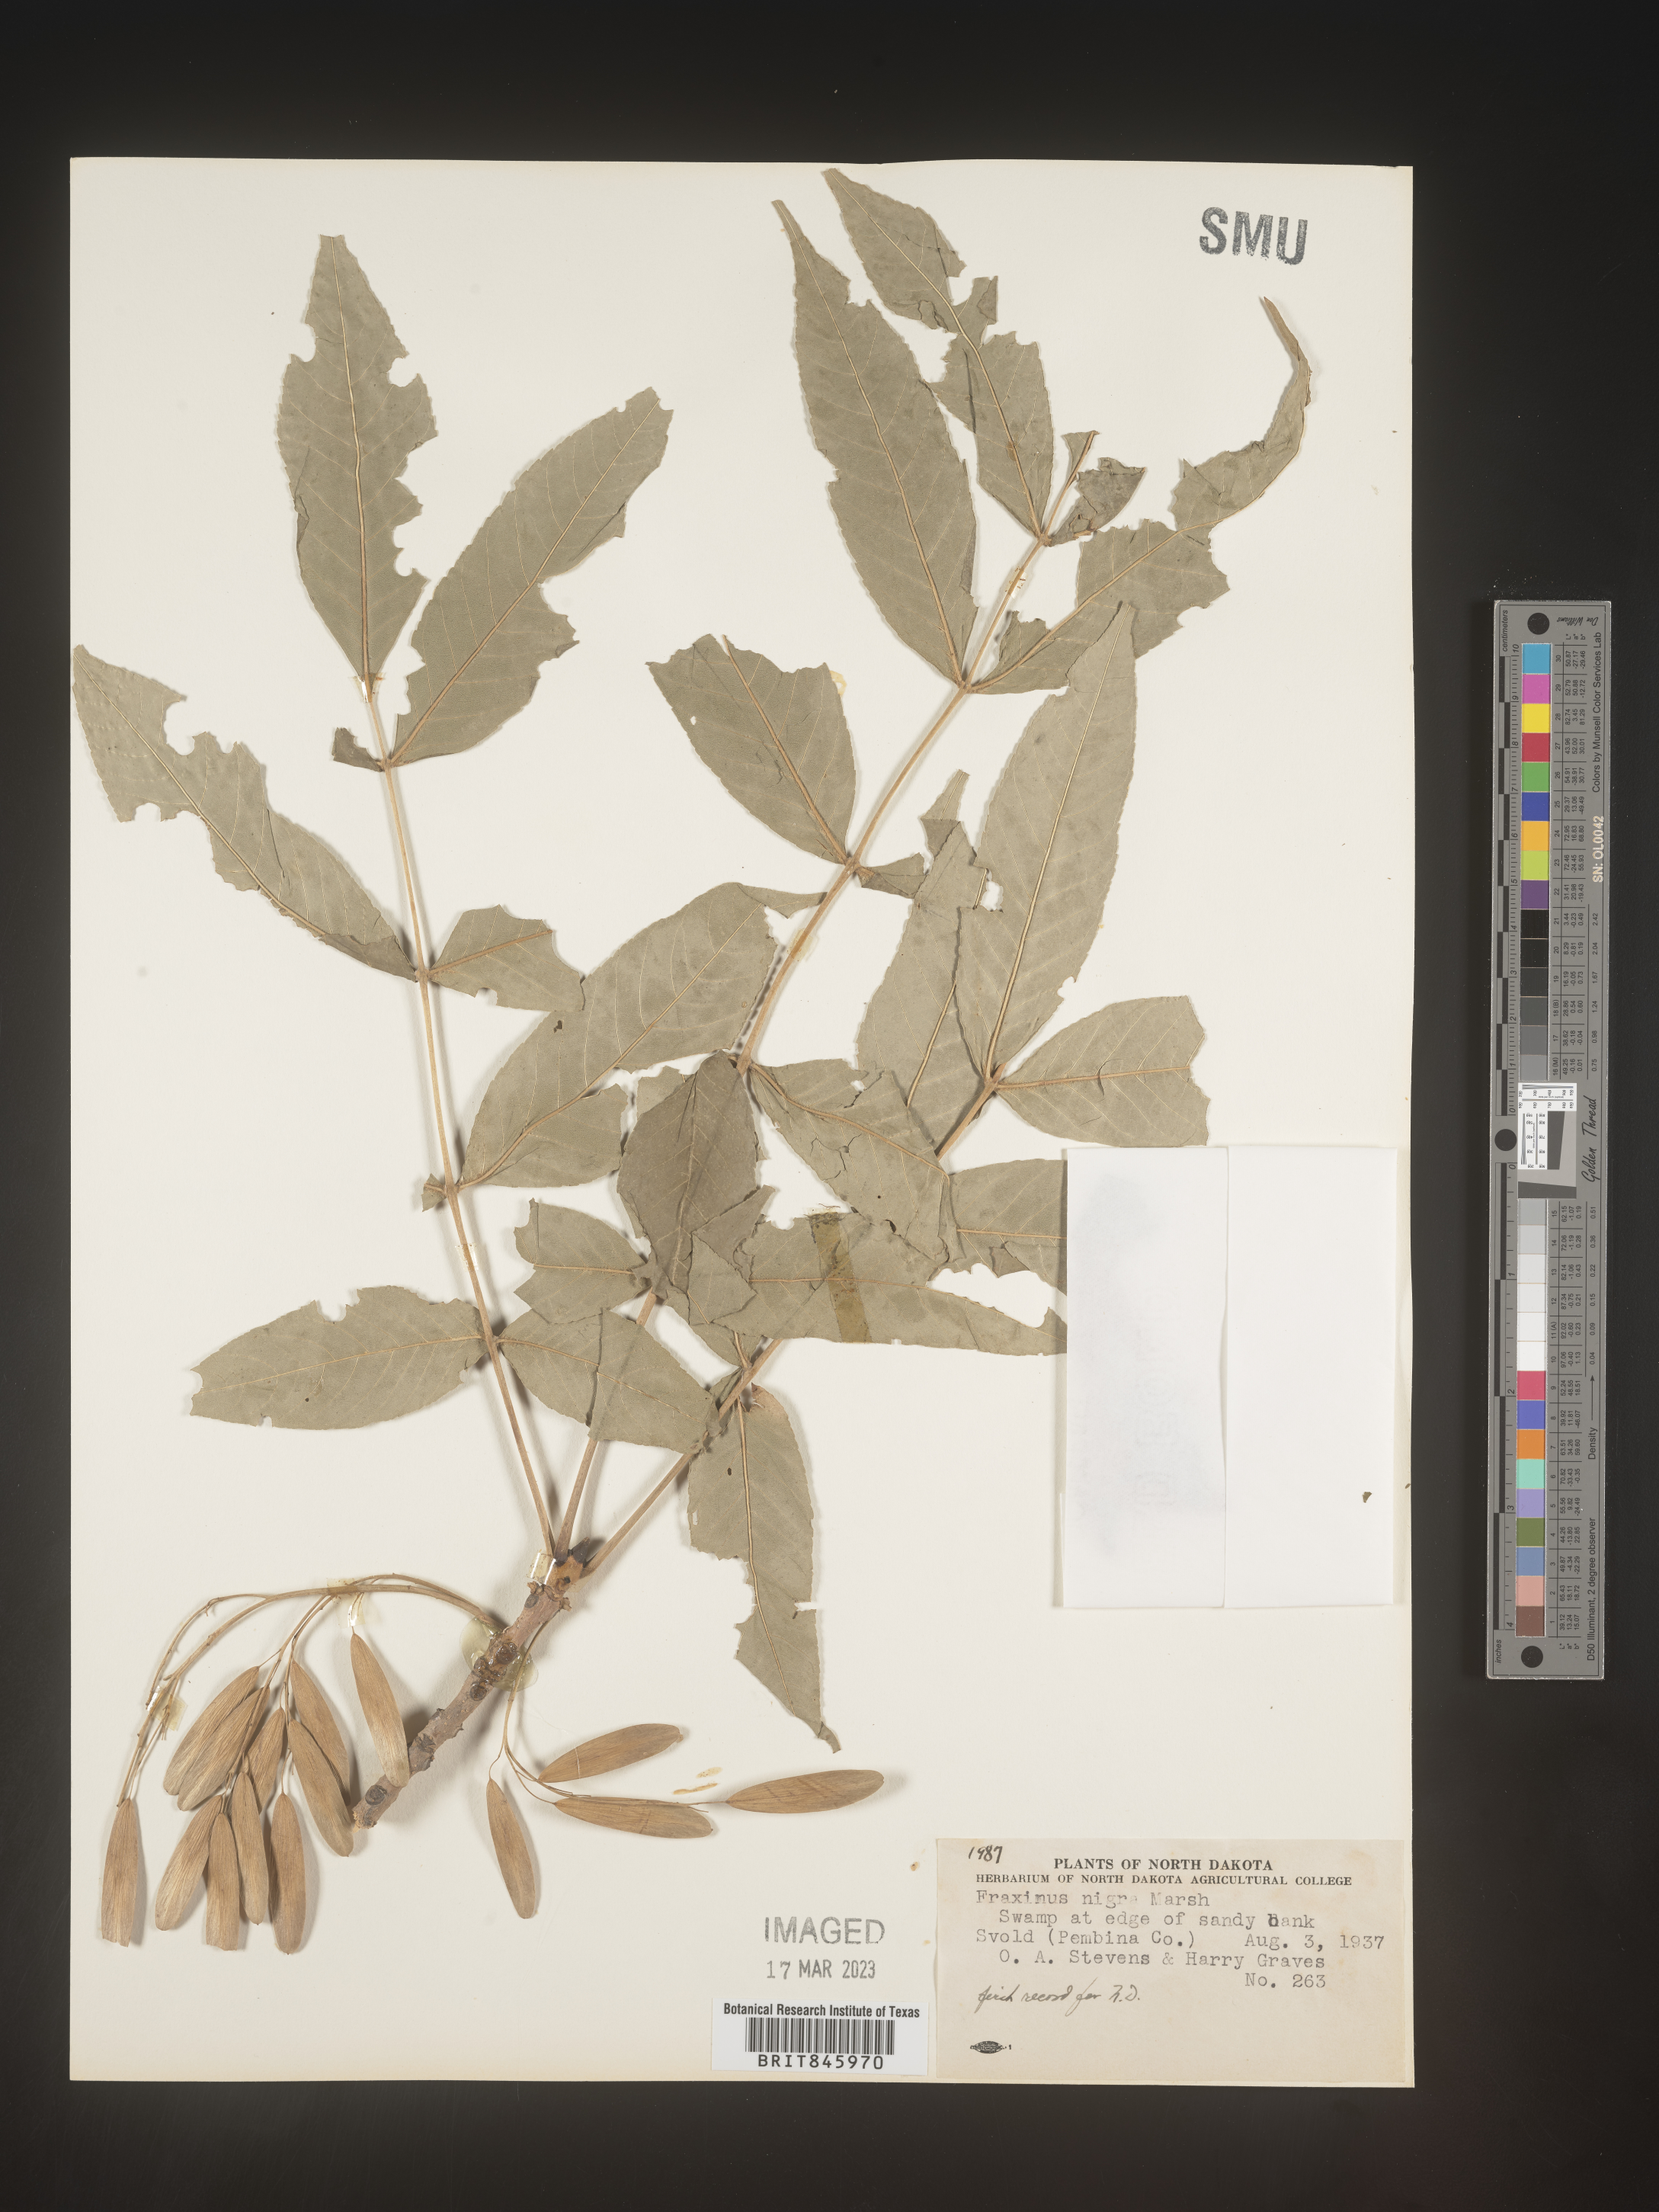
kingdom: Plantae
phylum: Tracheophyta
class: Magnoliopsida
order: Lamiales
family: Oleaceae
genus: Fraxinus
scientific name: Fraxinus nigra
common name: Black ash
